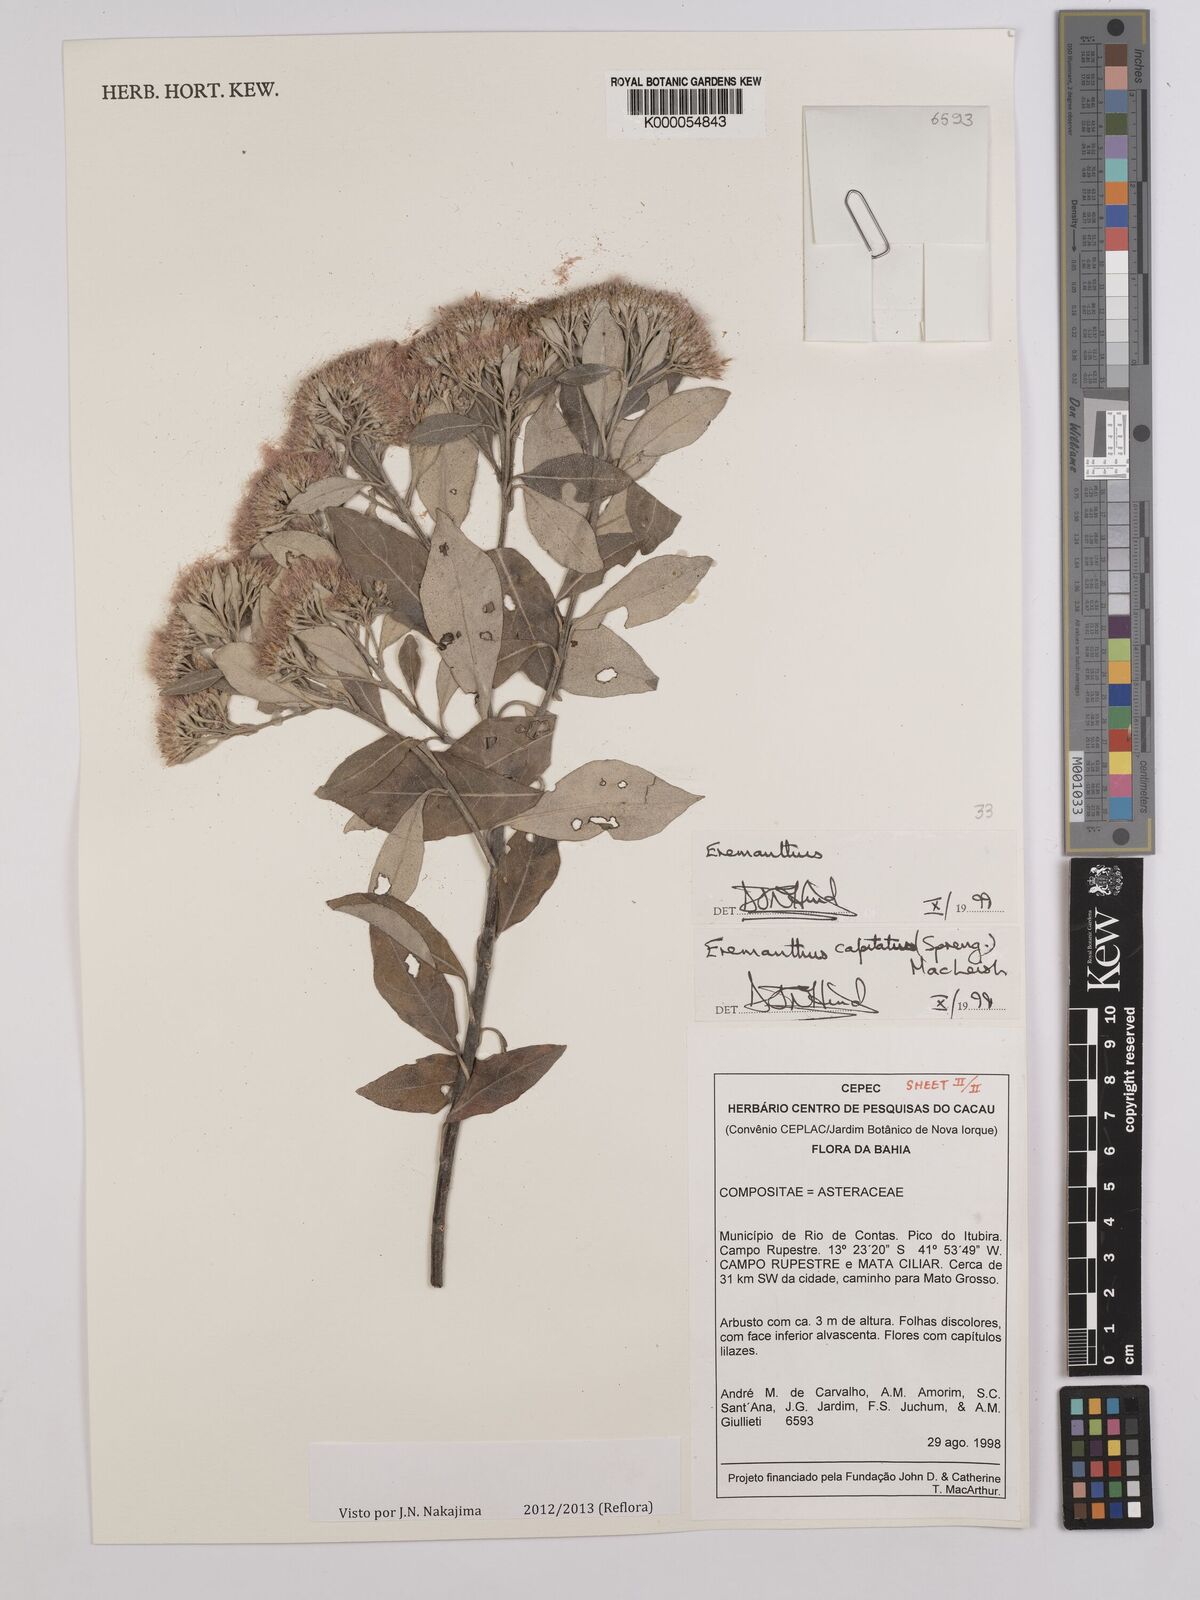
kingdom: Plantae
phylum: Tracheophyta
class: Magnoliopsida
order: Asterales
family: Asteraceae
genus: Eremanthus
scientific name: Eremanthus capitatus
